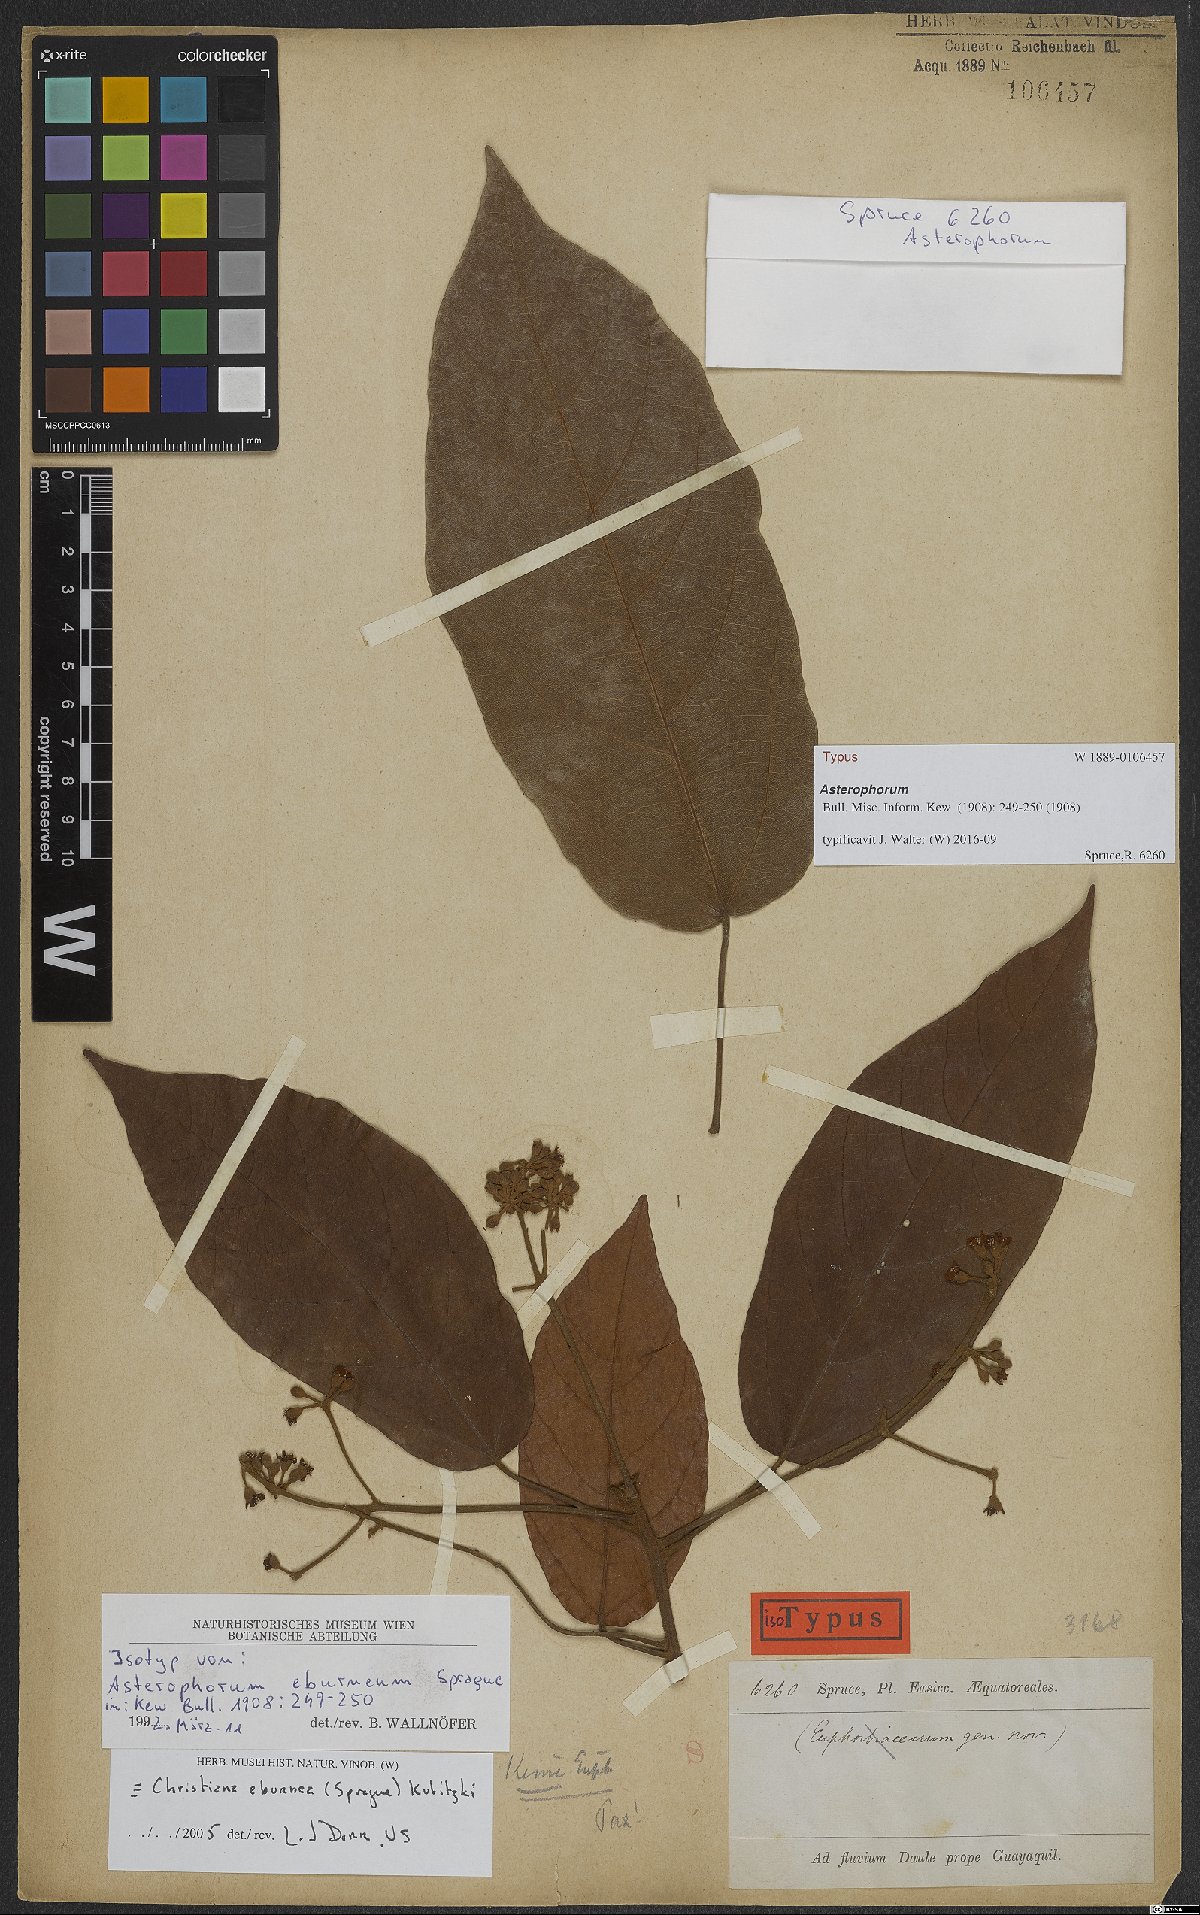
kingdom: Plantae
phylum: Tracheophyta
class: Magnoliopsida
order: Malvales
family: Malvaceae
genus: Christiana
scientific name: Christiana eburnea
